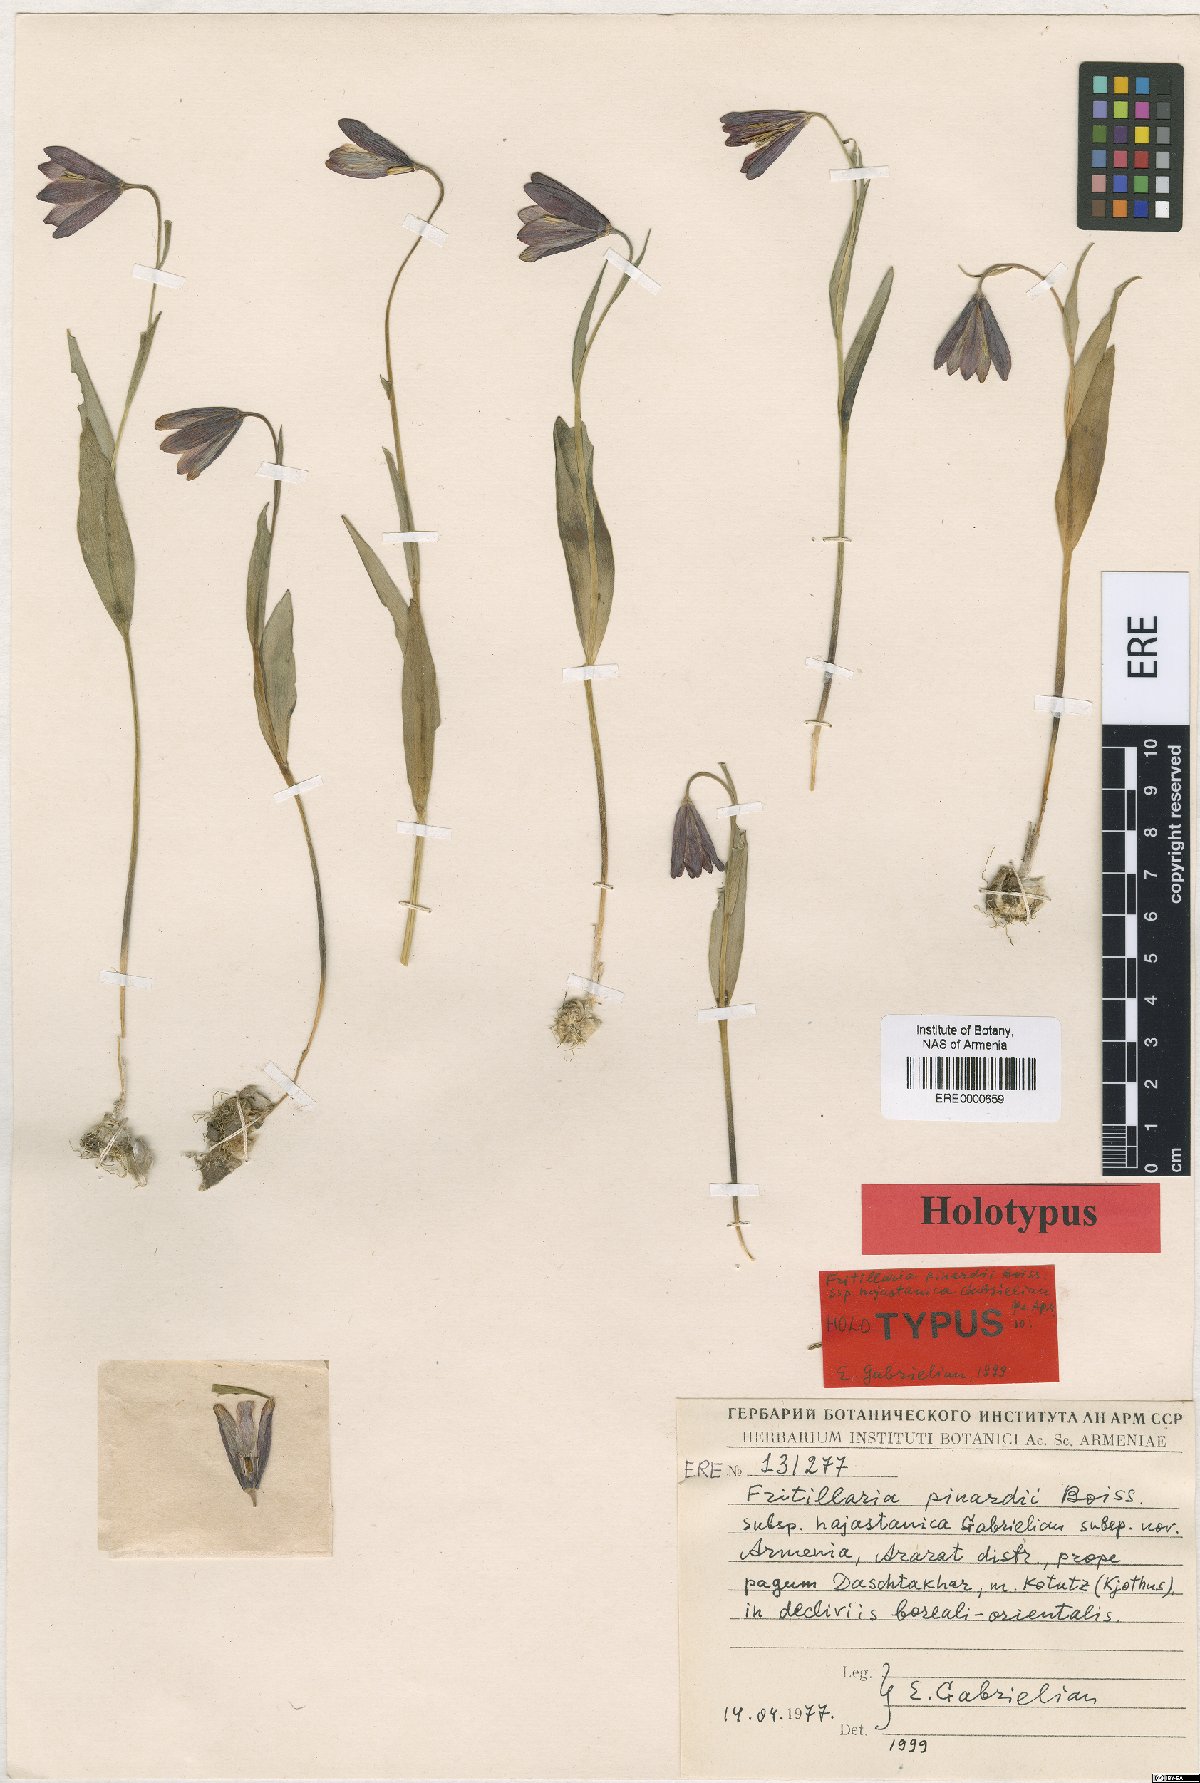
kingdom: Plantae
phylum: Tracheophyta
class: Liliopsida
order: Liliales
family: Liliaceae
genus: Fritillaria
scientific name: Fritillaria pinardii
